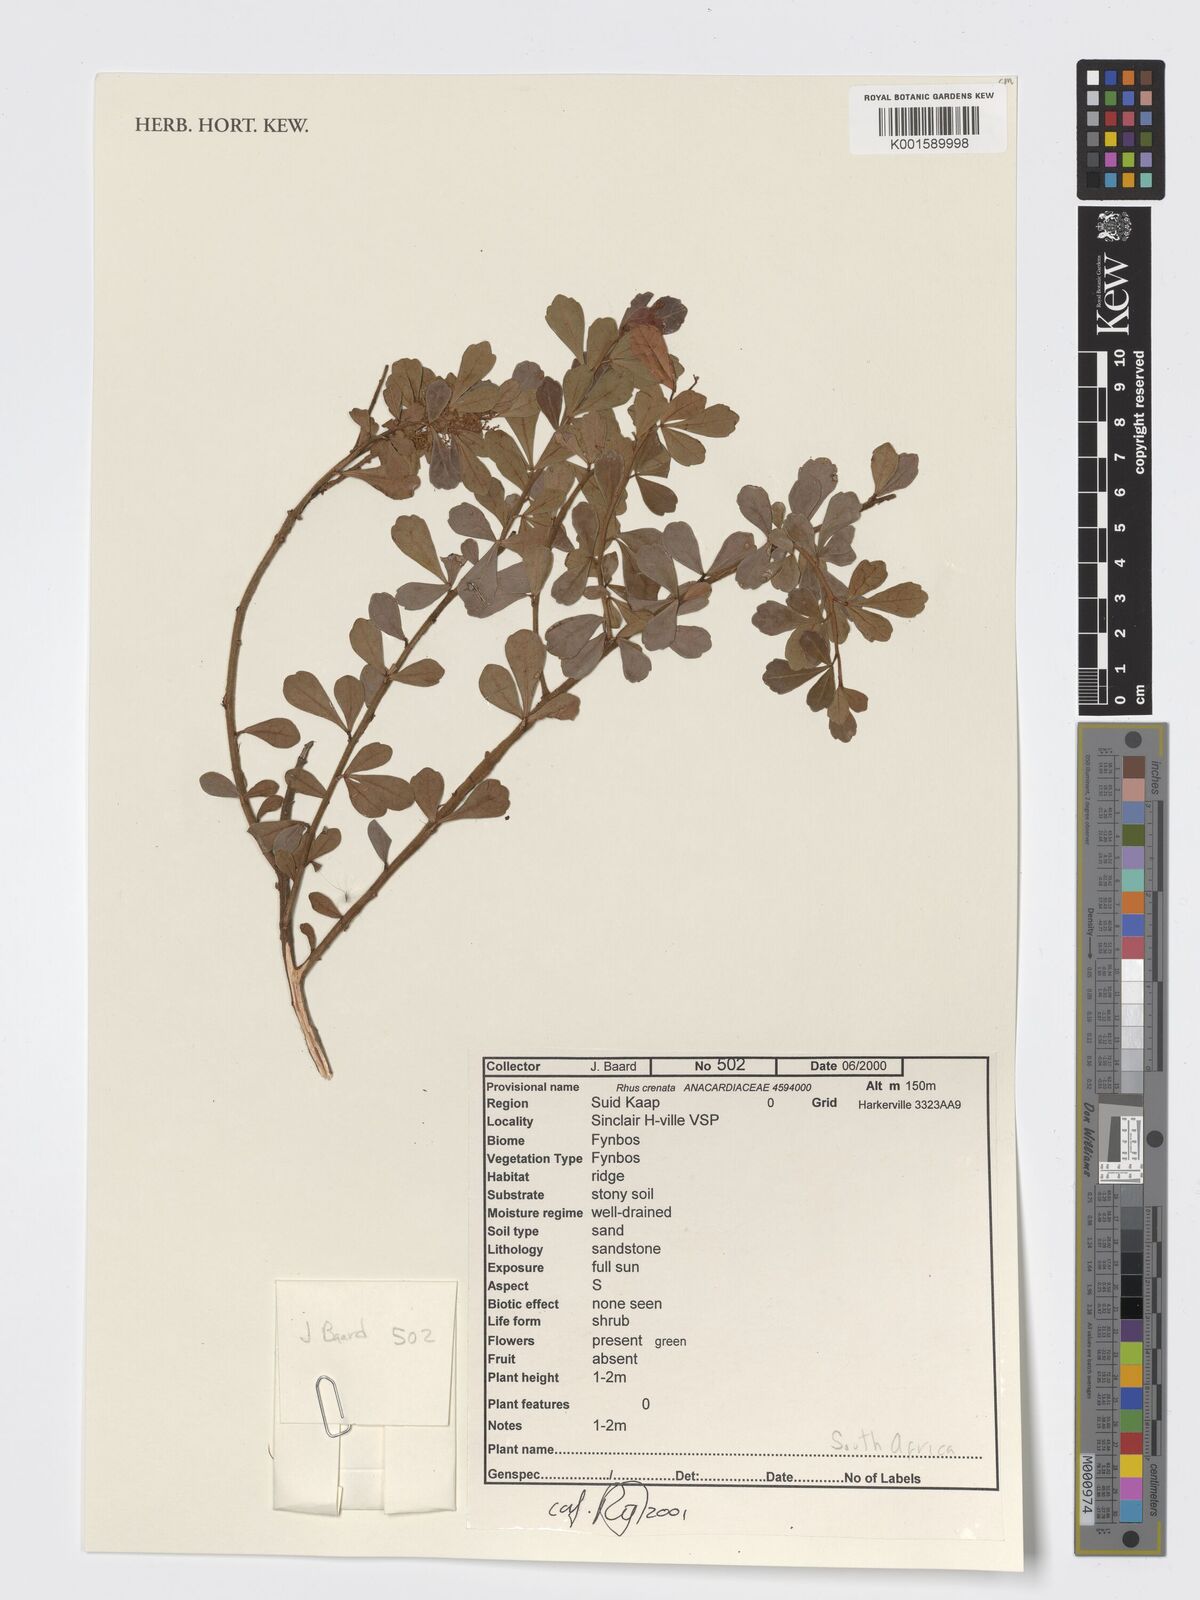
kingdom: Plantae
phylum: Tracheophyta
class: Magnoliopsida
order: Sapindales
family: Anacardiaceae
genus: Searsia
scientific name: Searsia crenata
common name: Crowberry
